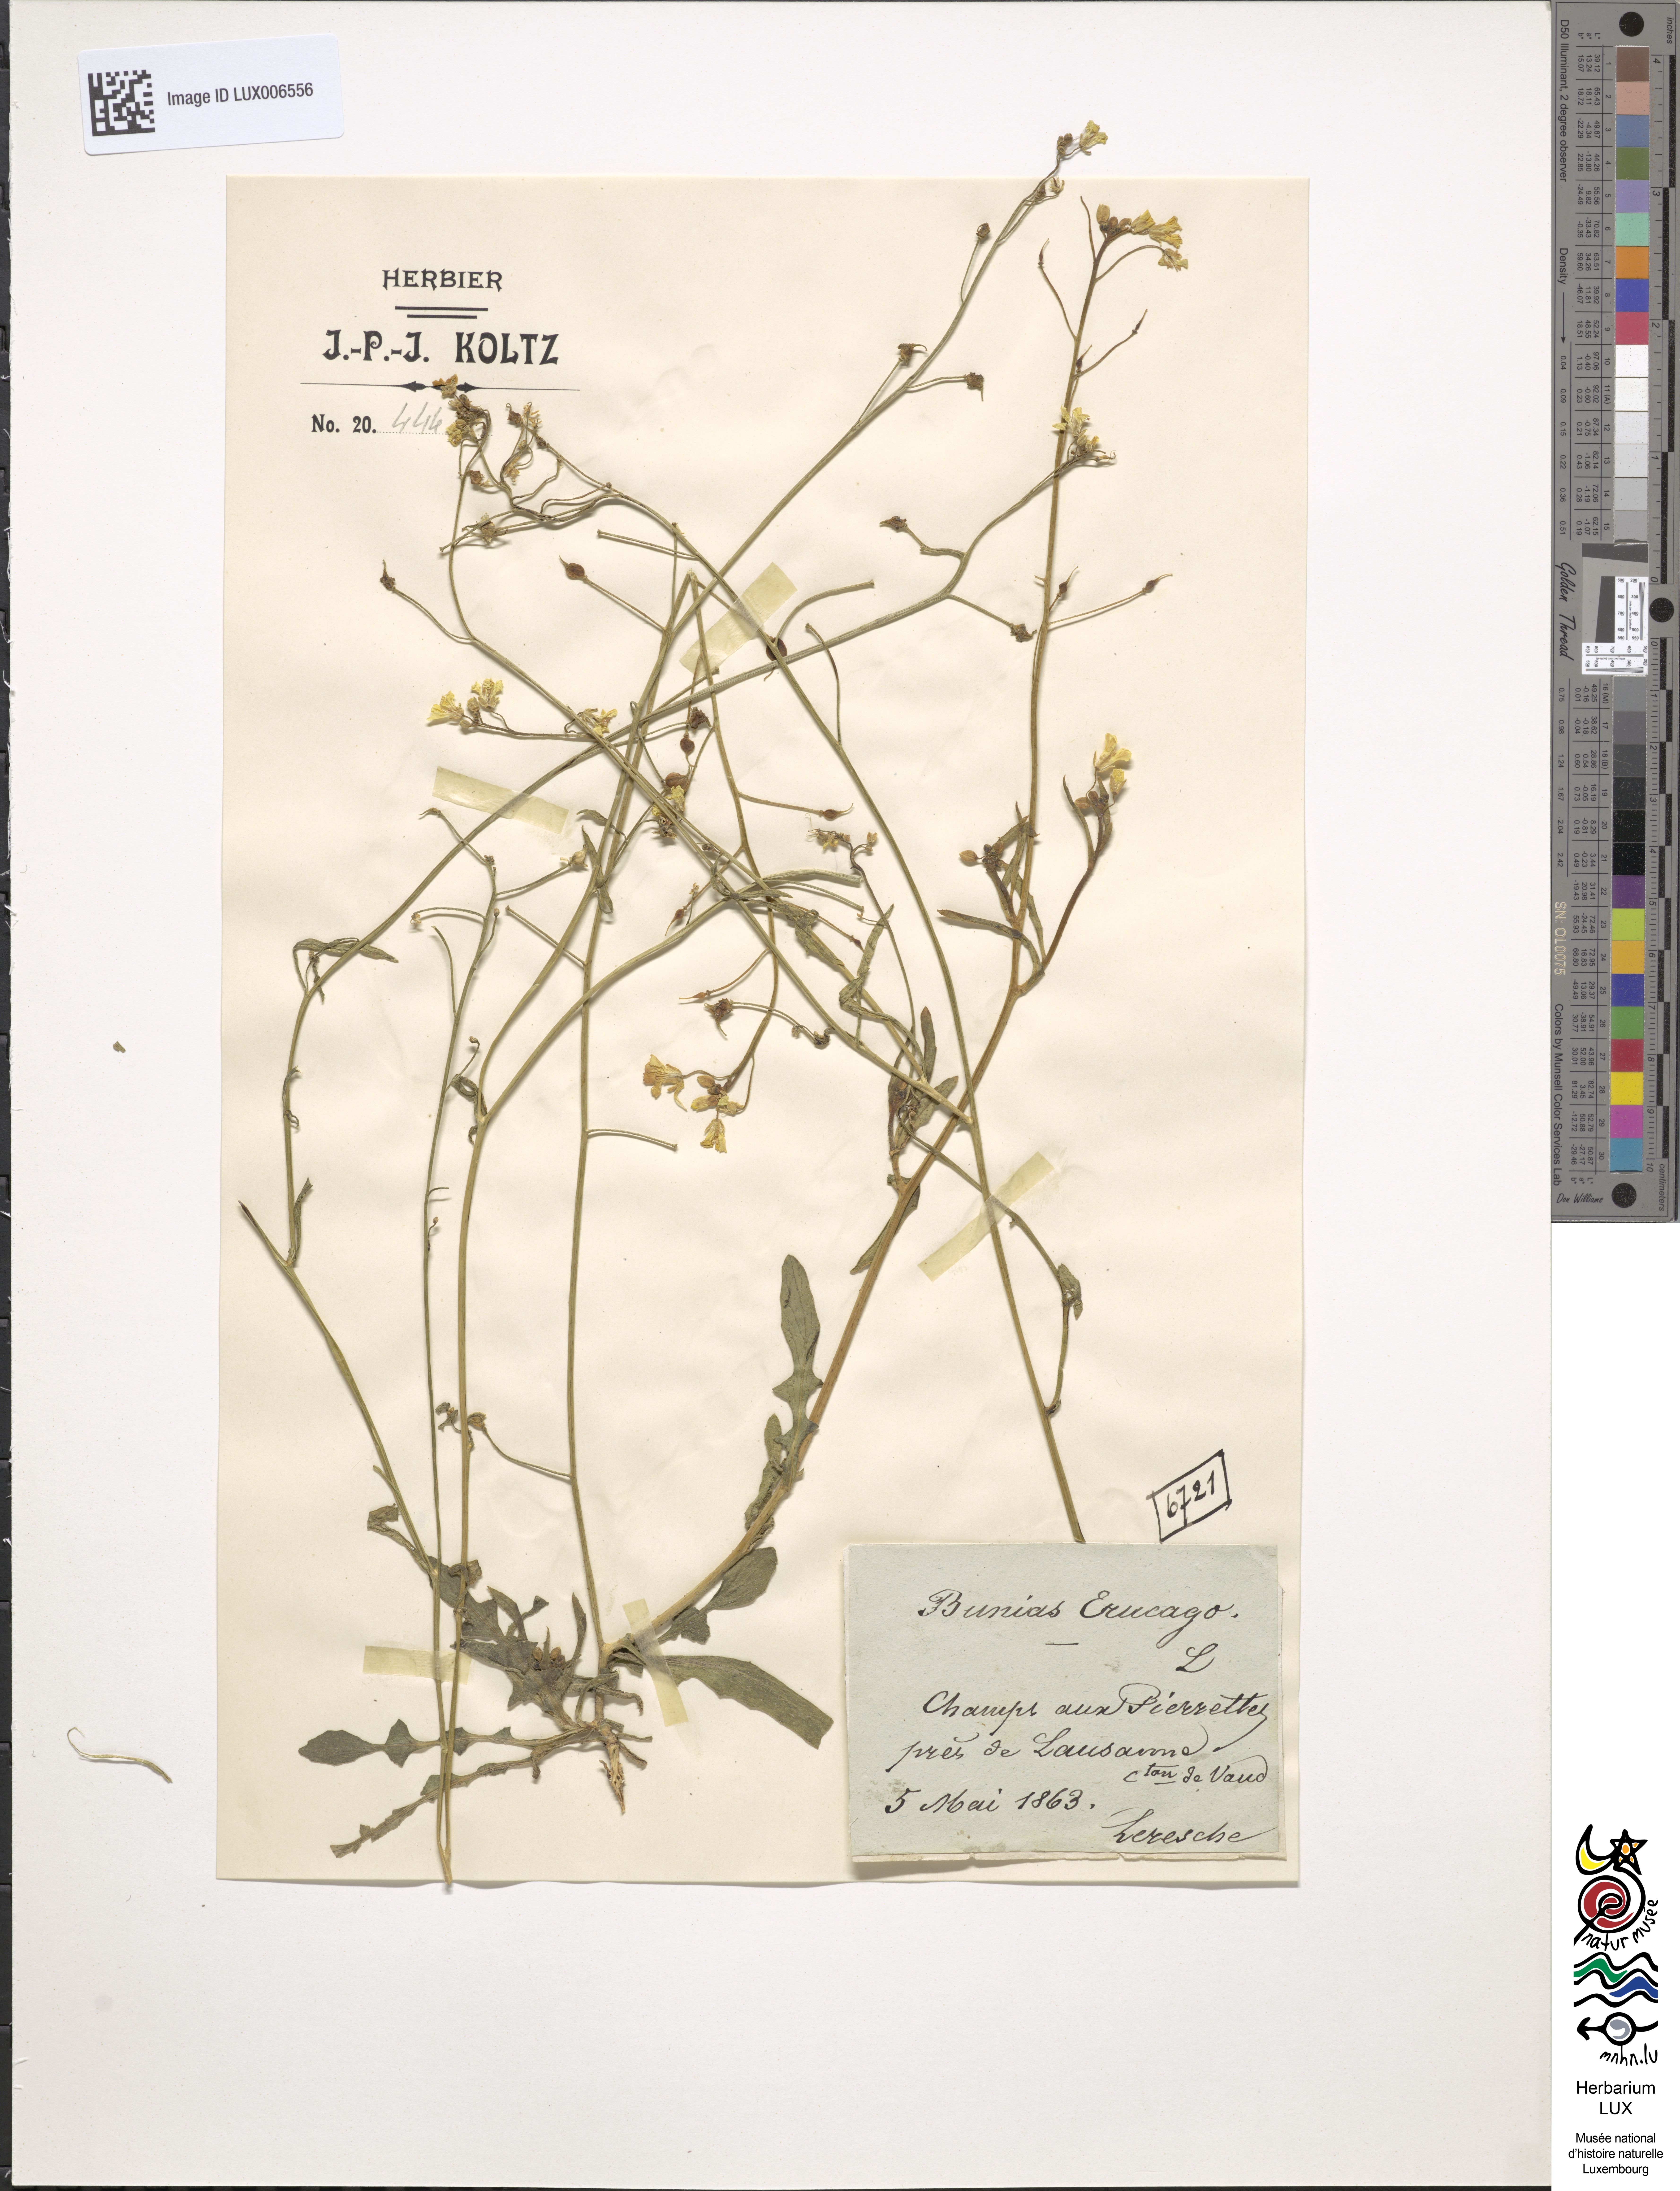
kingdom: Plantae
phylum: Tracheophyta
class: Magnoliopsida
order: Brassicales
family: Brassicaceae
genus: Bunias
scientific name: Bunias erucago
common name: Southern warty-cabbage
